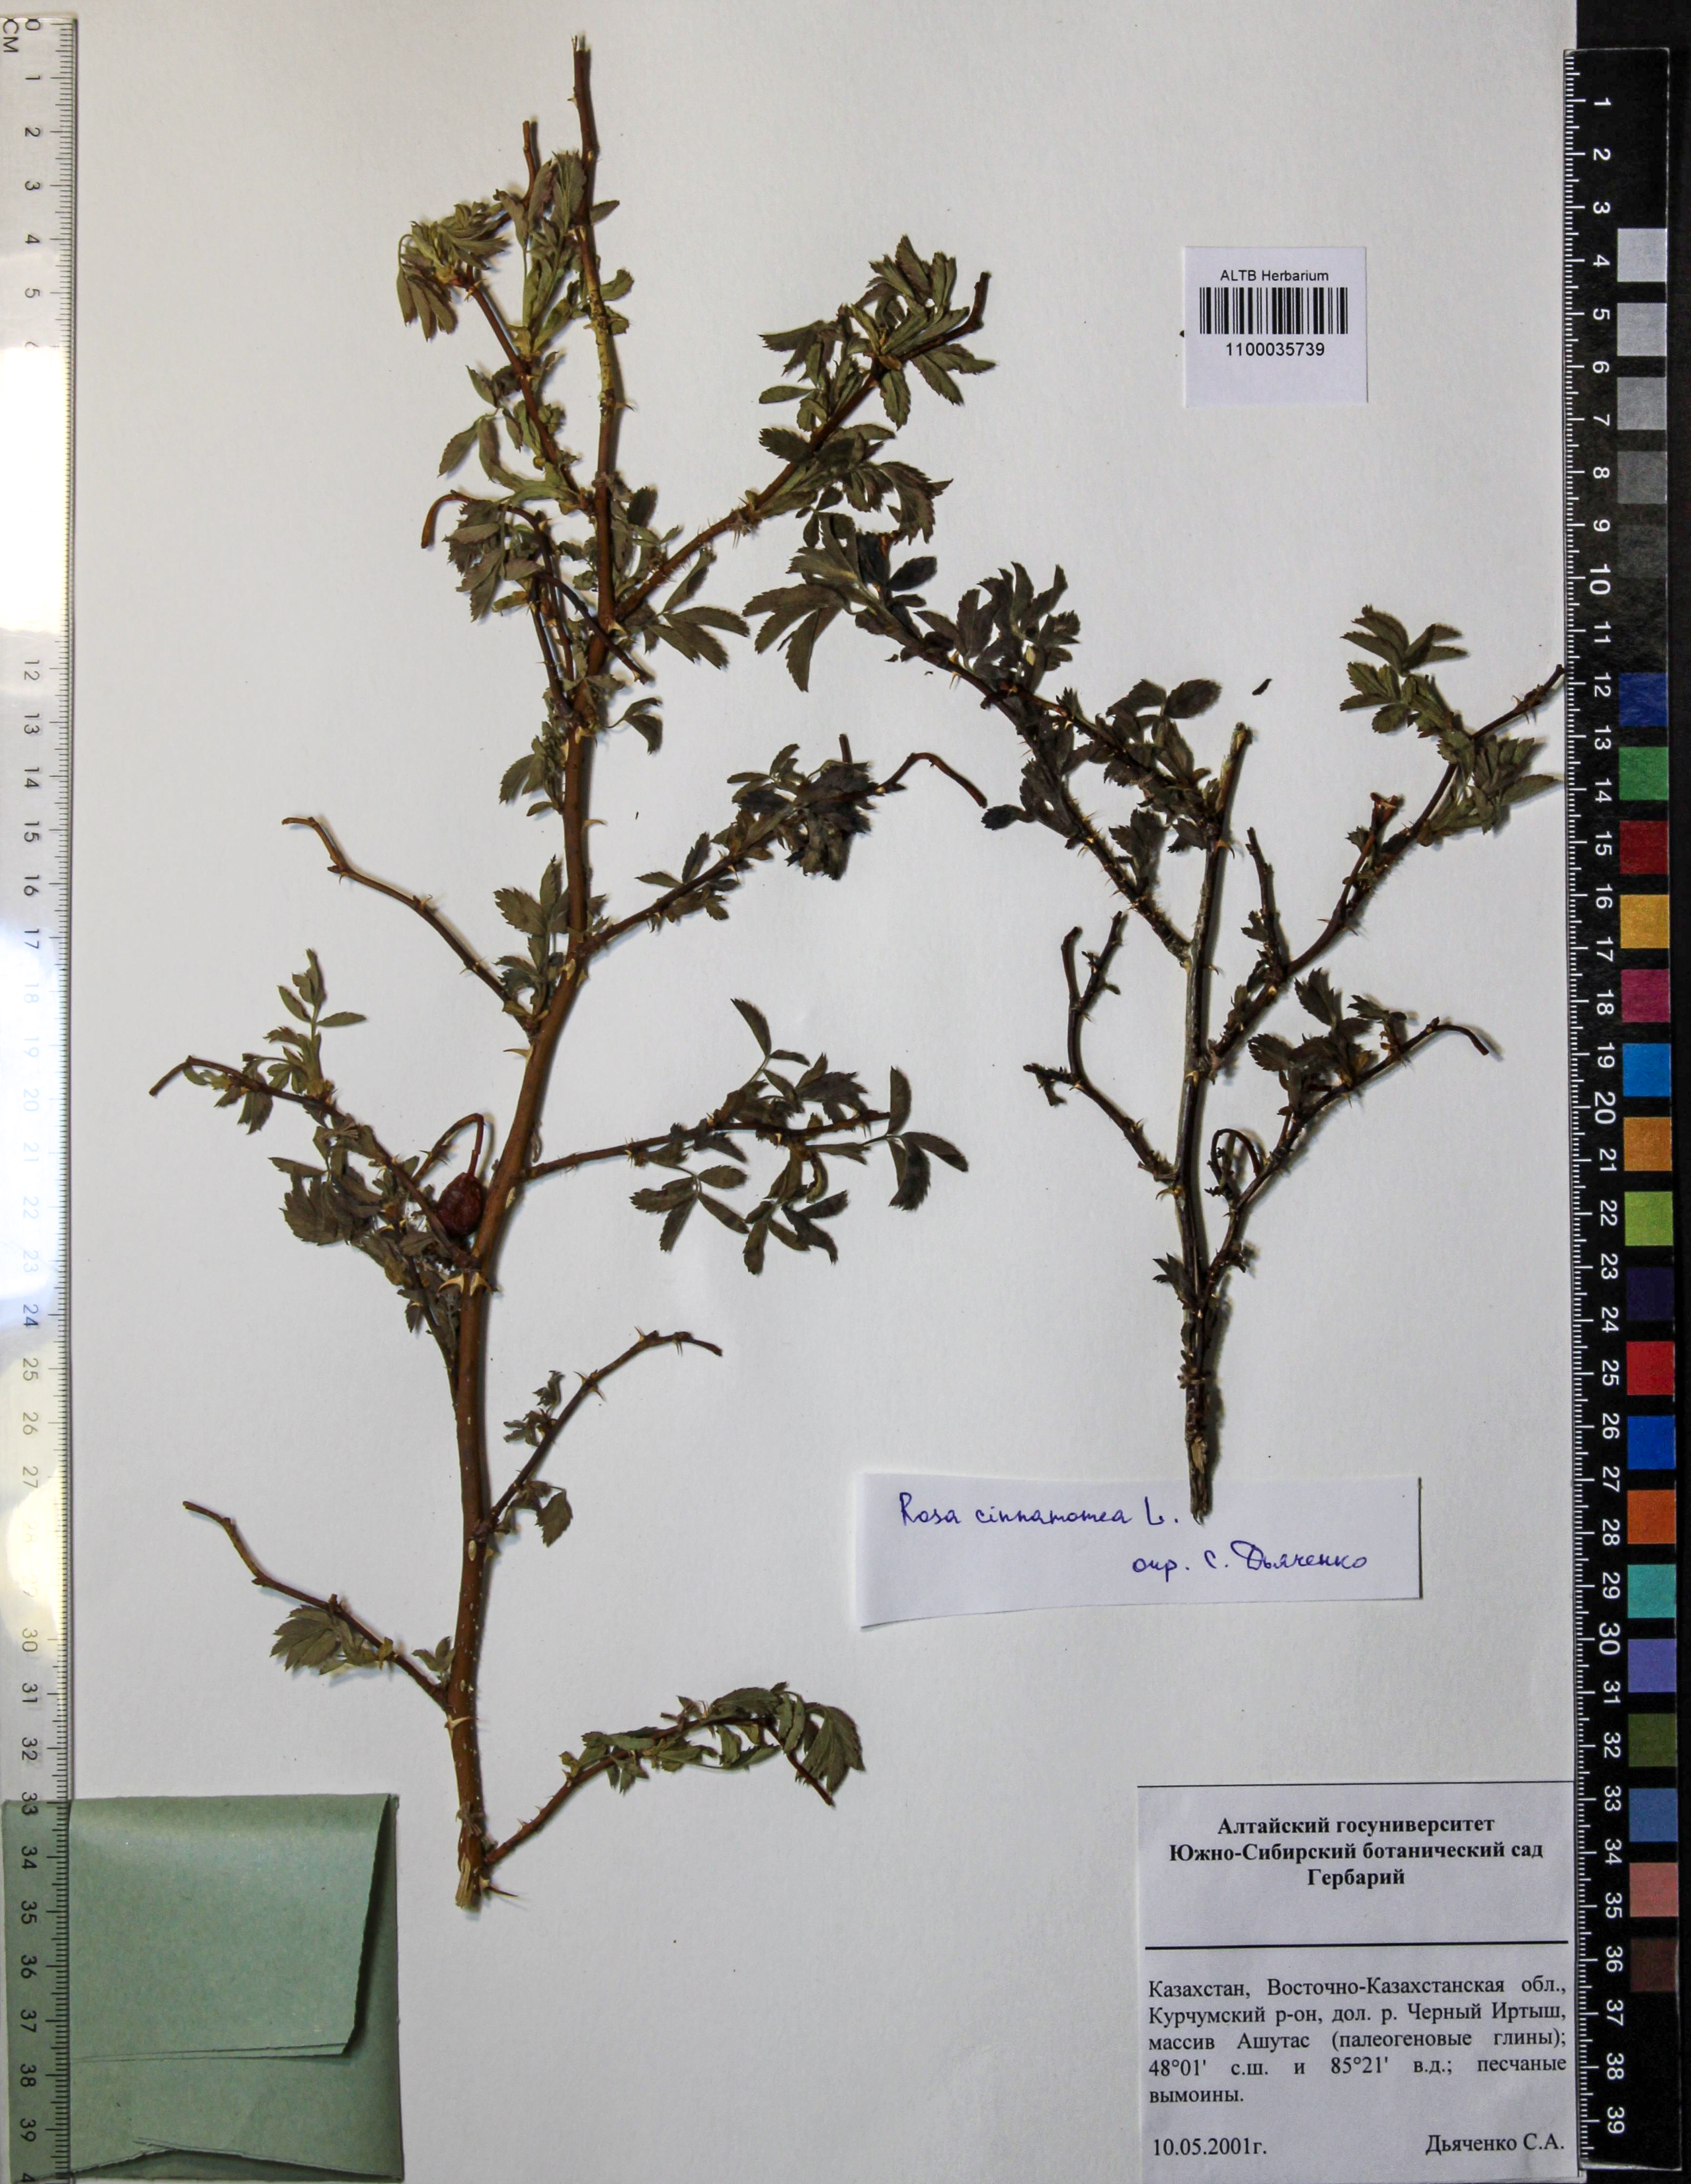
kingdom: Plantae
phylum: Tracheophyta
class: Magnoliopsida
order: Rosales
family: Rosaceae
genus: Rosa
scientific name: Rosa pendulina
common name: Alpine rose
